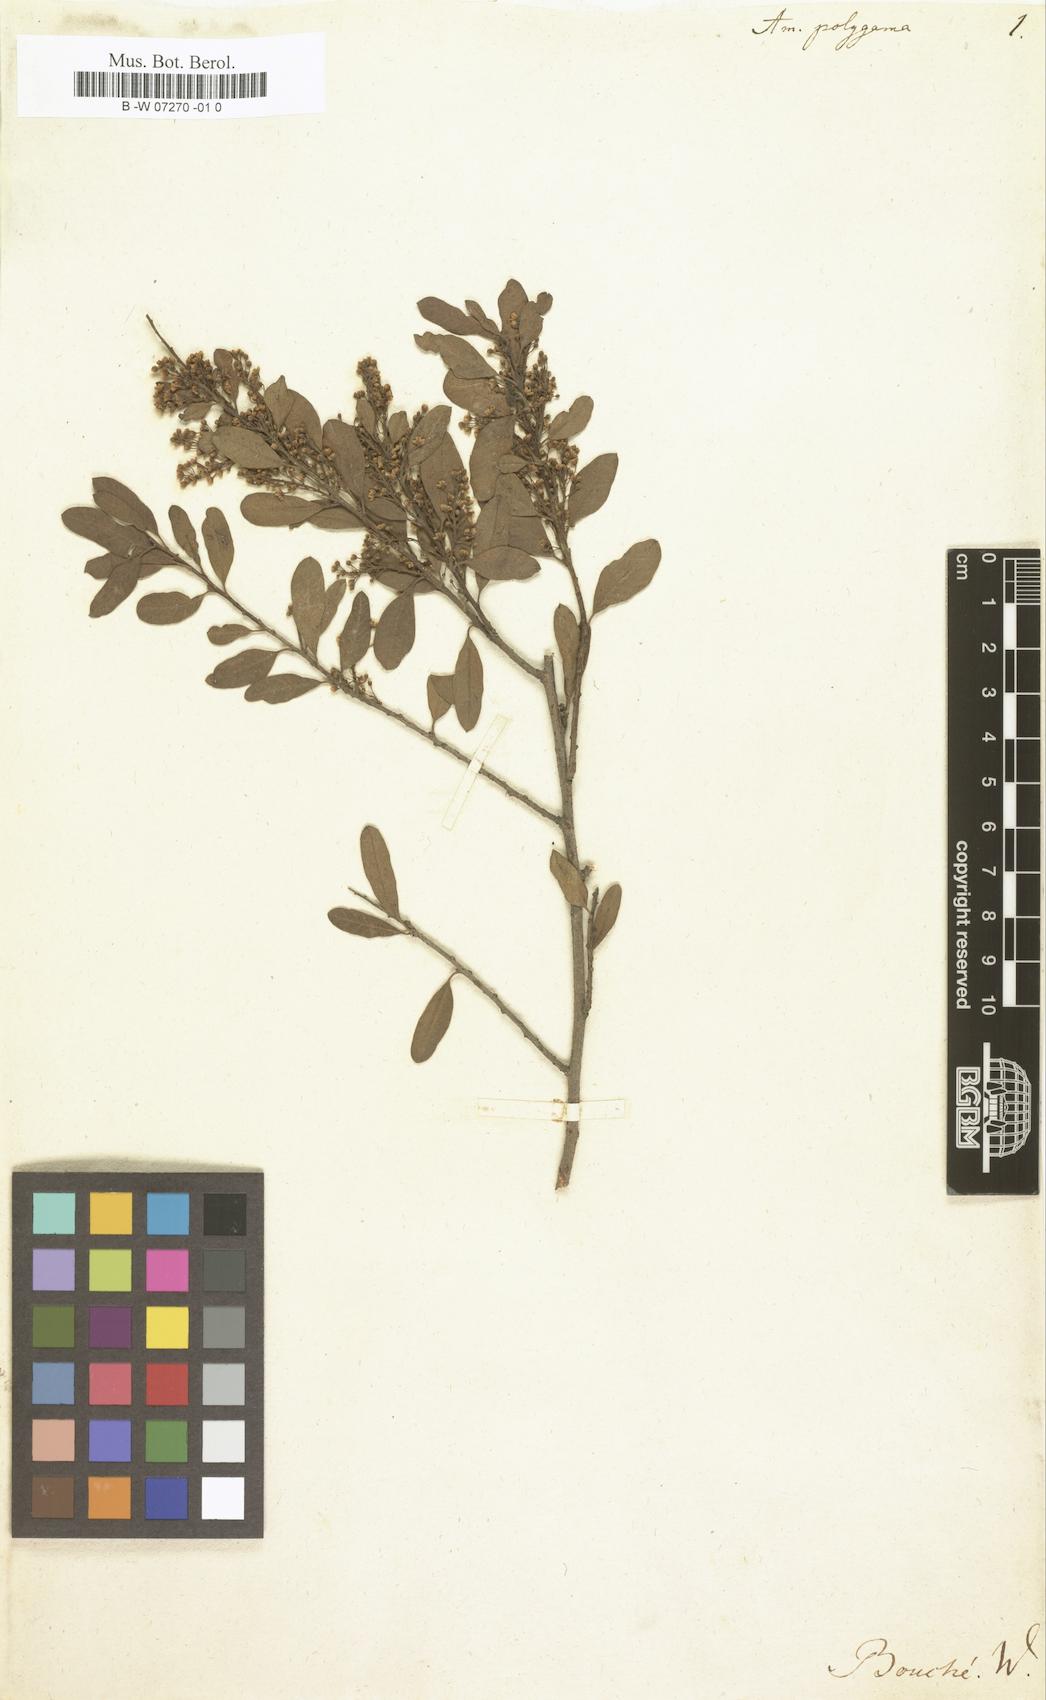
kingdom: Plantae
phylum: Tracheophyta
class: Magnoliopsida
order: Sapindales
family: Anacardiaceae
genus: Schinus
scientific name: Schinus polygama
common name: Hardee peppertree
